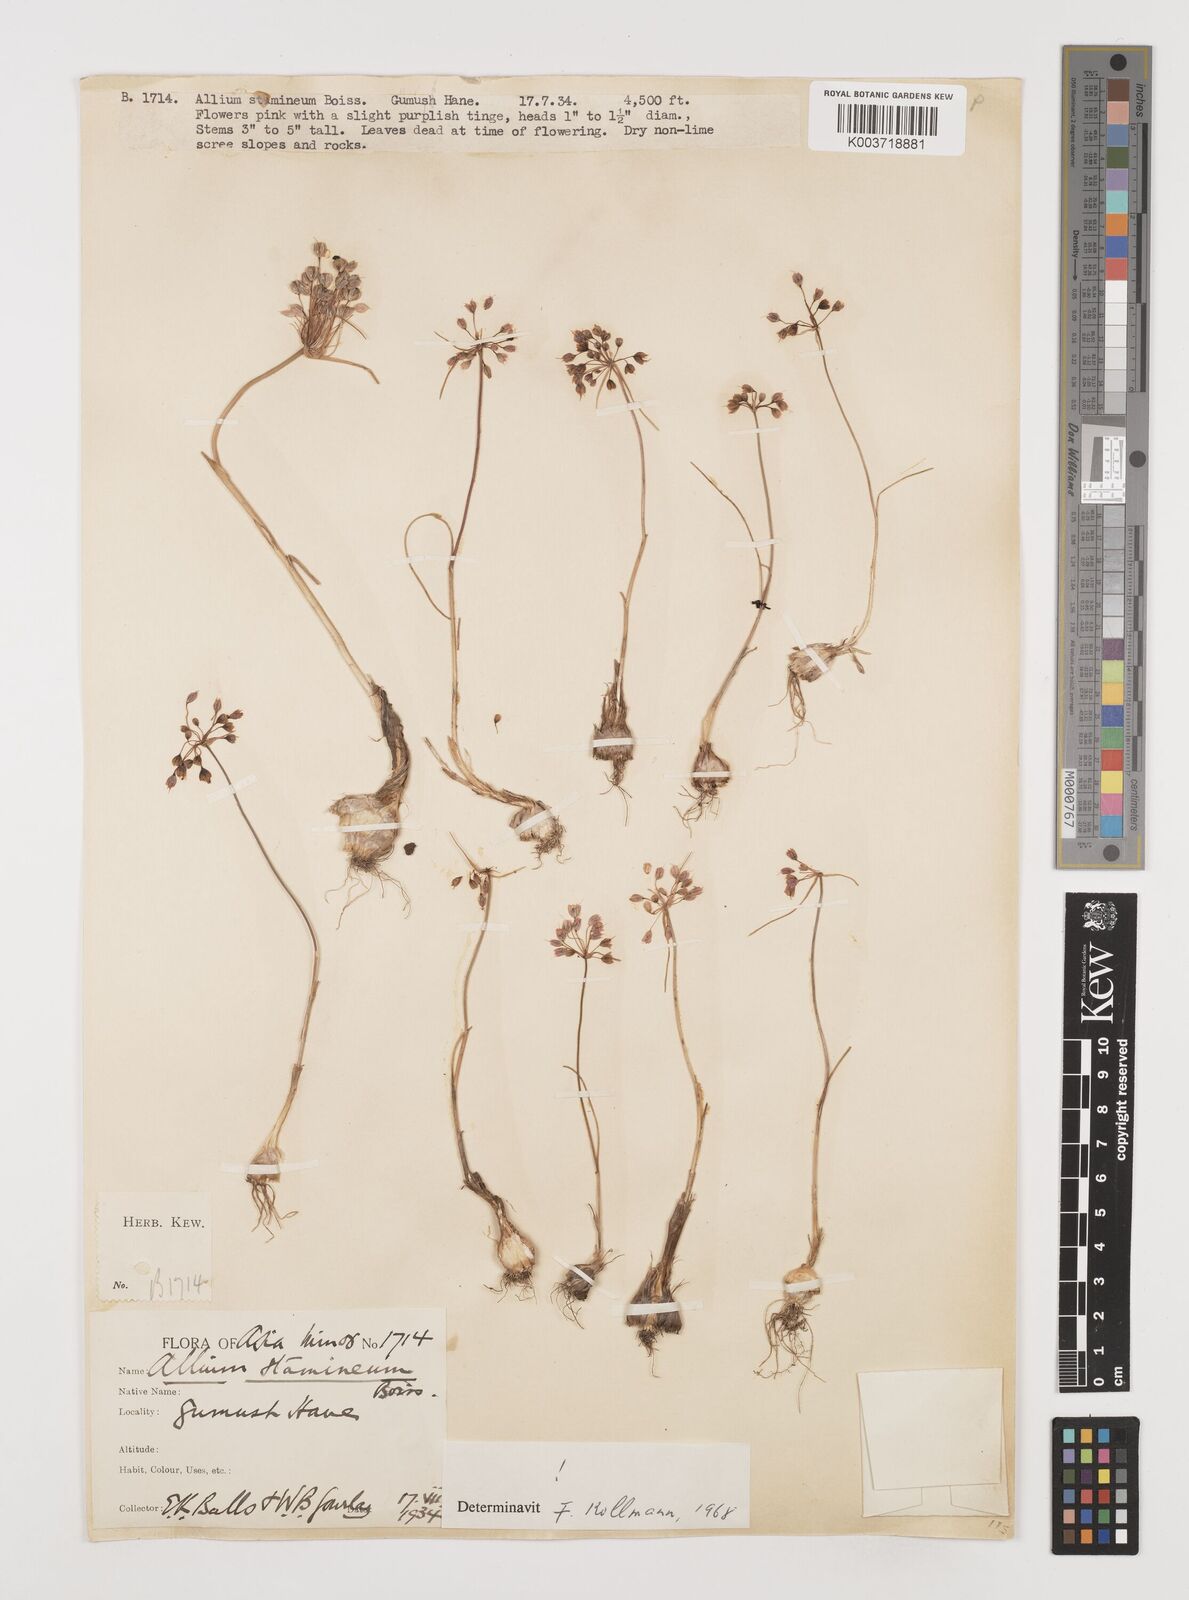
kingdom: Plantae
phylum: Tracheophyta
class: Liliopsida
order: Asparagales
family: Amaryllidaceae
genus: Allium
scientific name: Allium stamineum
